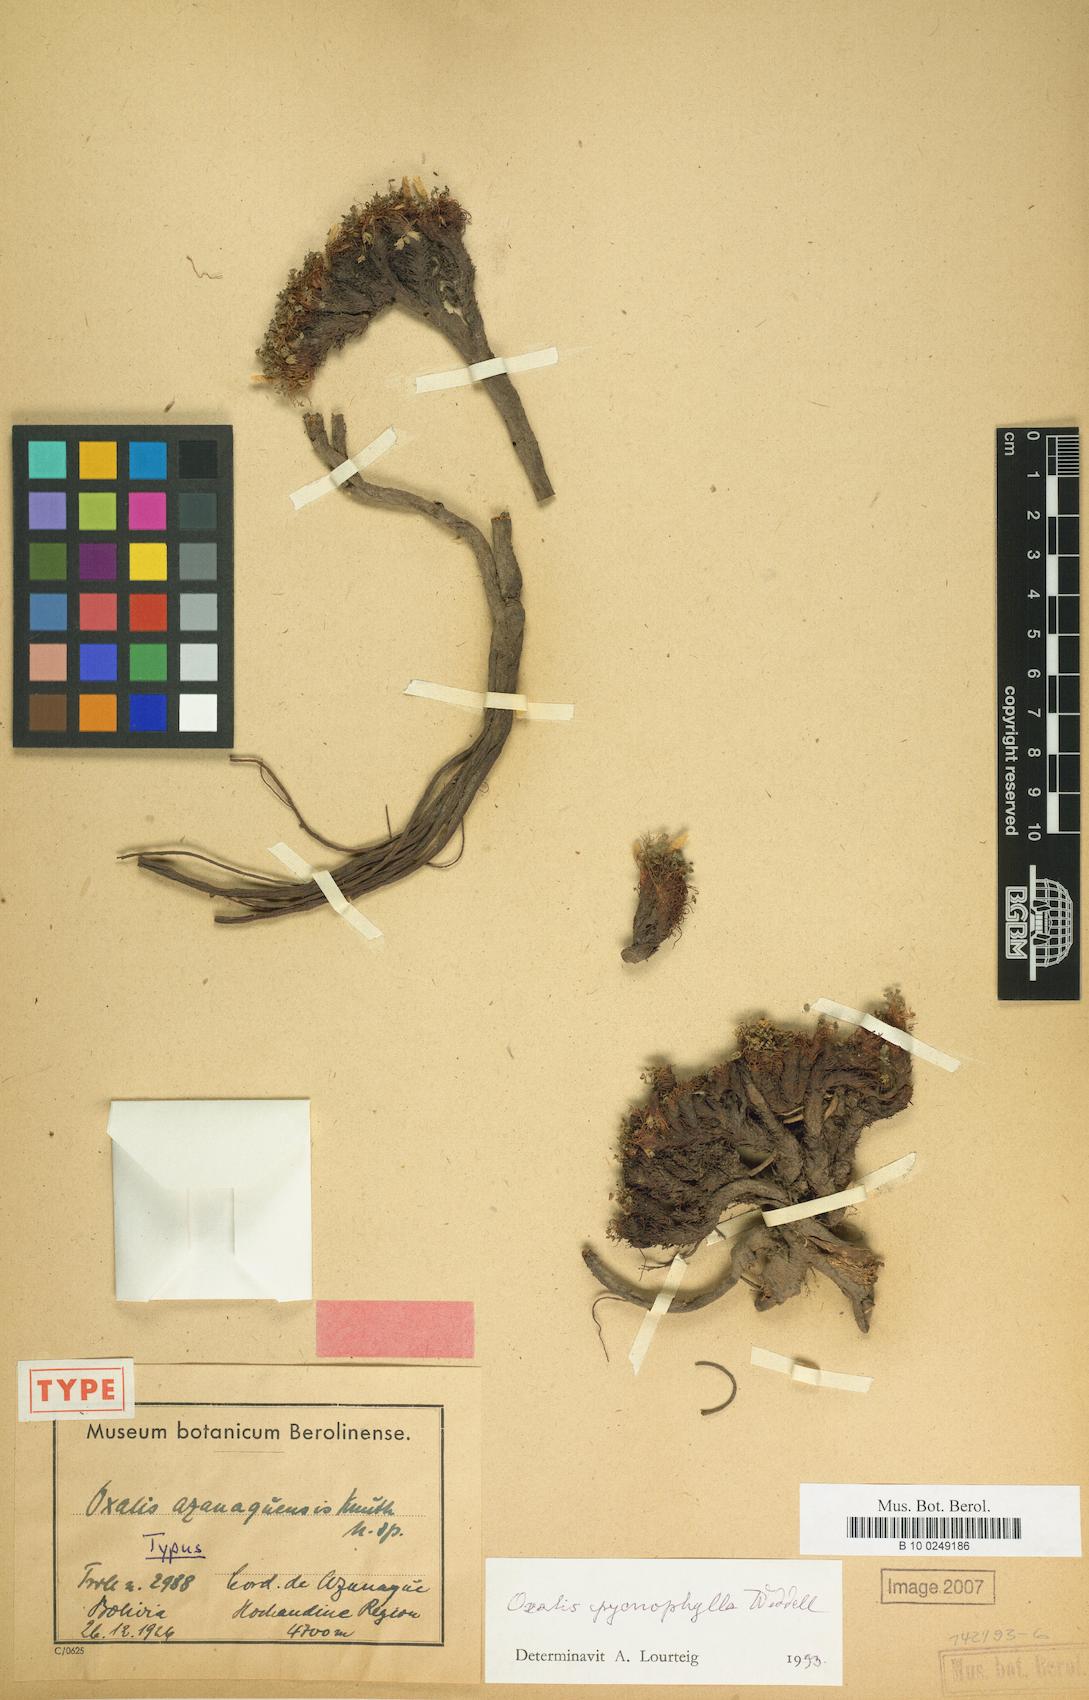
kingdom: Plantae
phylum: Tracheophyta
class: Magnoliopsida
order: Oxalidales
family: Oxalidaceae
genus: Oxalis
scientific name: Oxalis pycnophylla
